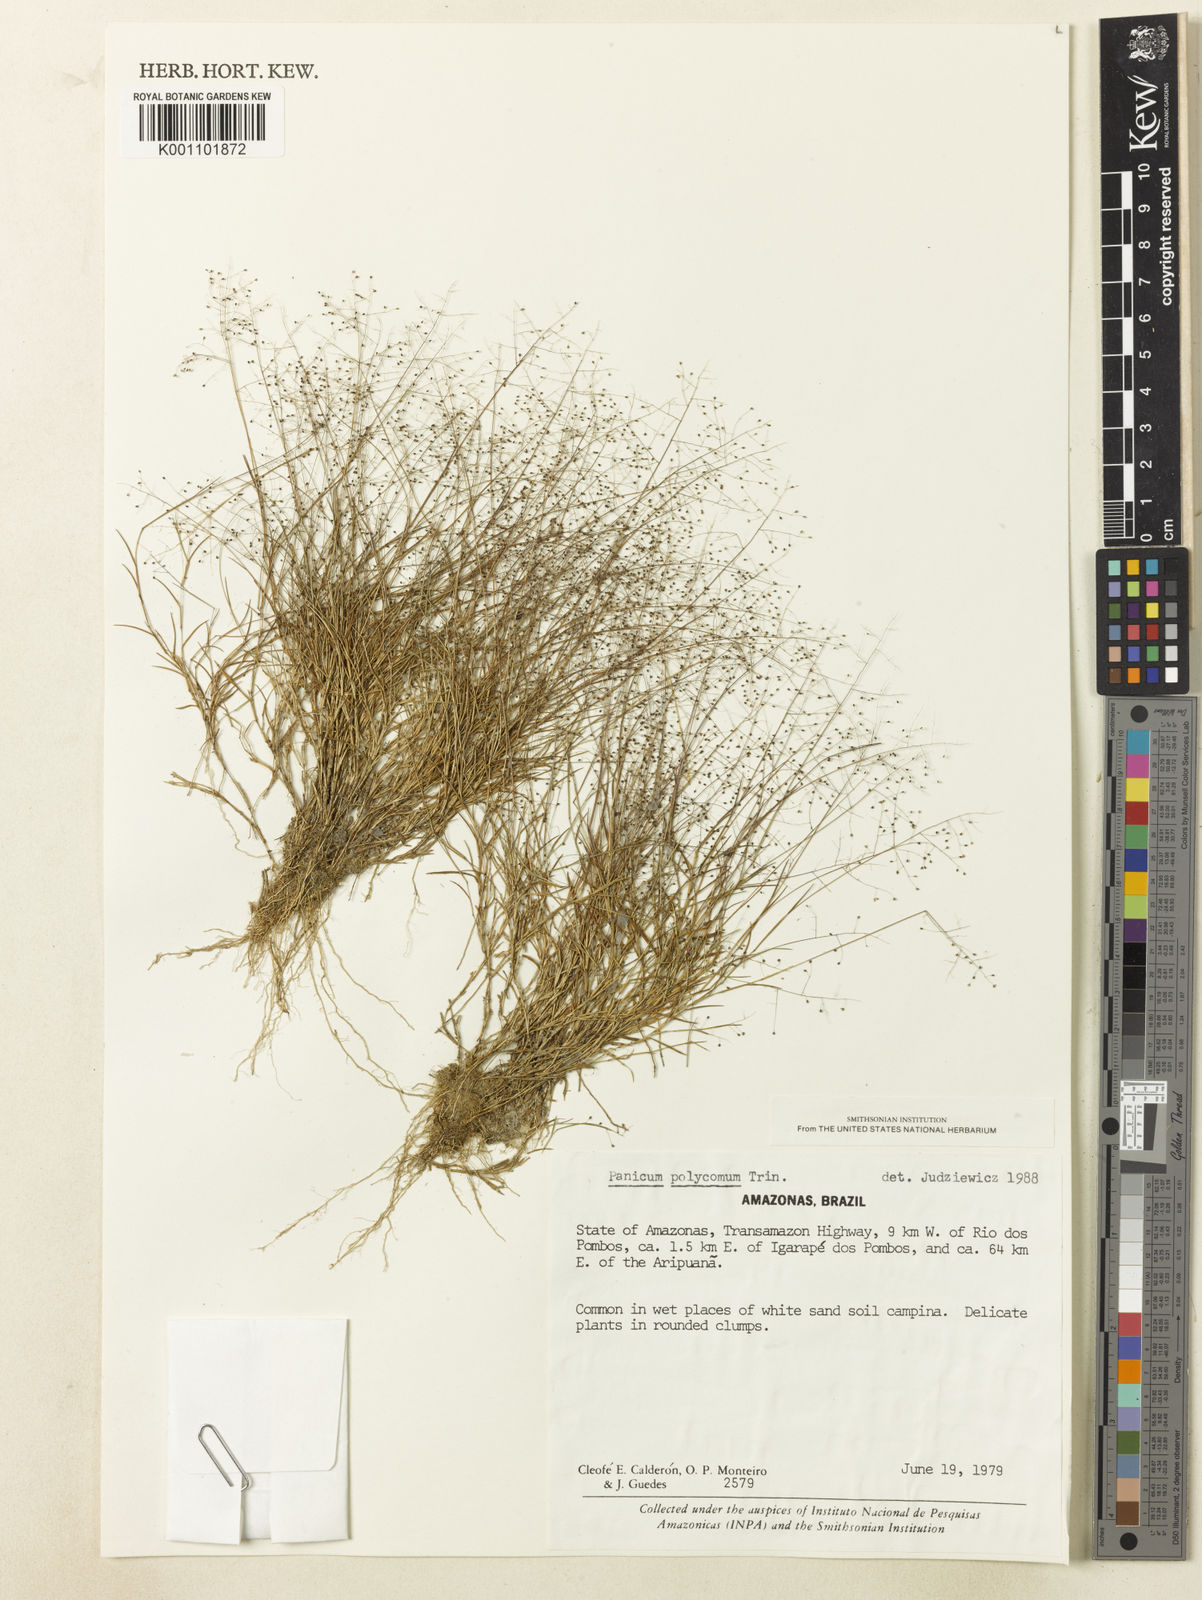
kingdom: Plantae
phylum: Tracheophyta
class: Liliopsida
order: Poales
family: Poaceae
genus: Trichanthecium
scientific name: Trichanthecium polycomum
